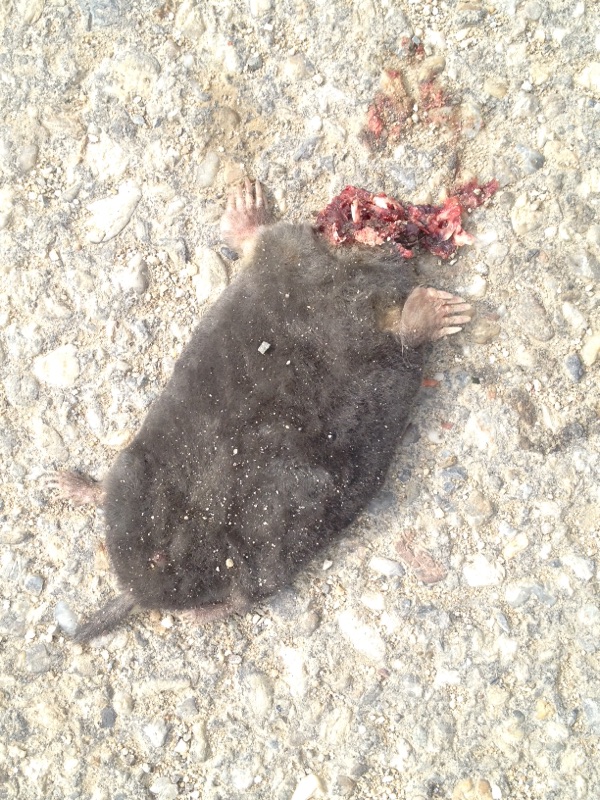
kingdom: Animalia
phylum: Chordata
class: Mammalia
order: Soricomorpha
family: Talpidae
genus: Talpa
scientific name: Talpa europaea
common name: European mole
